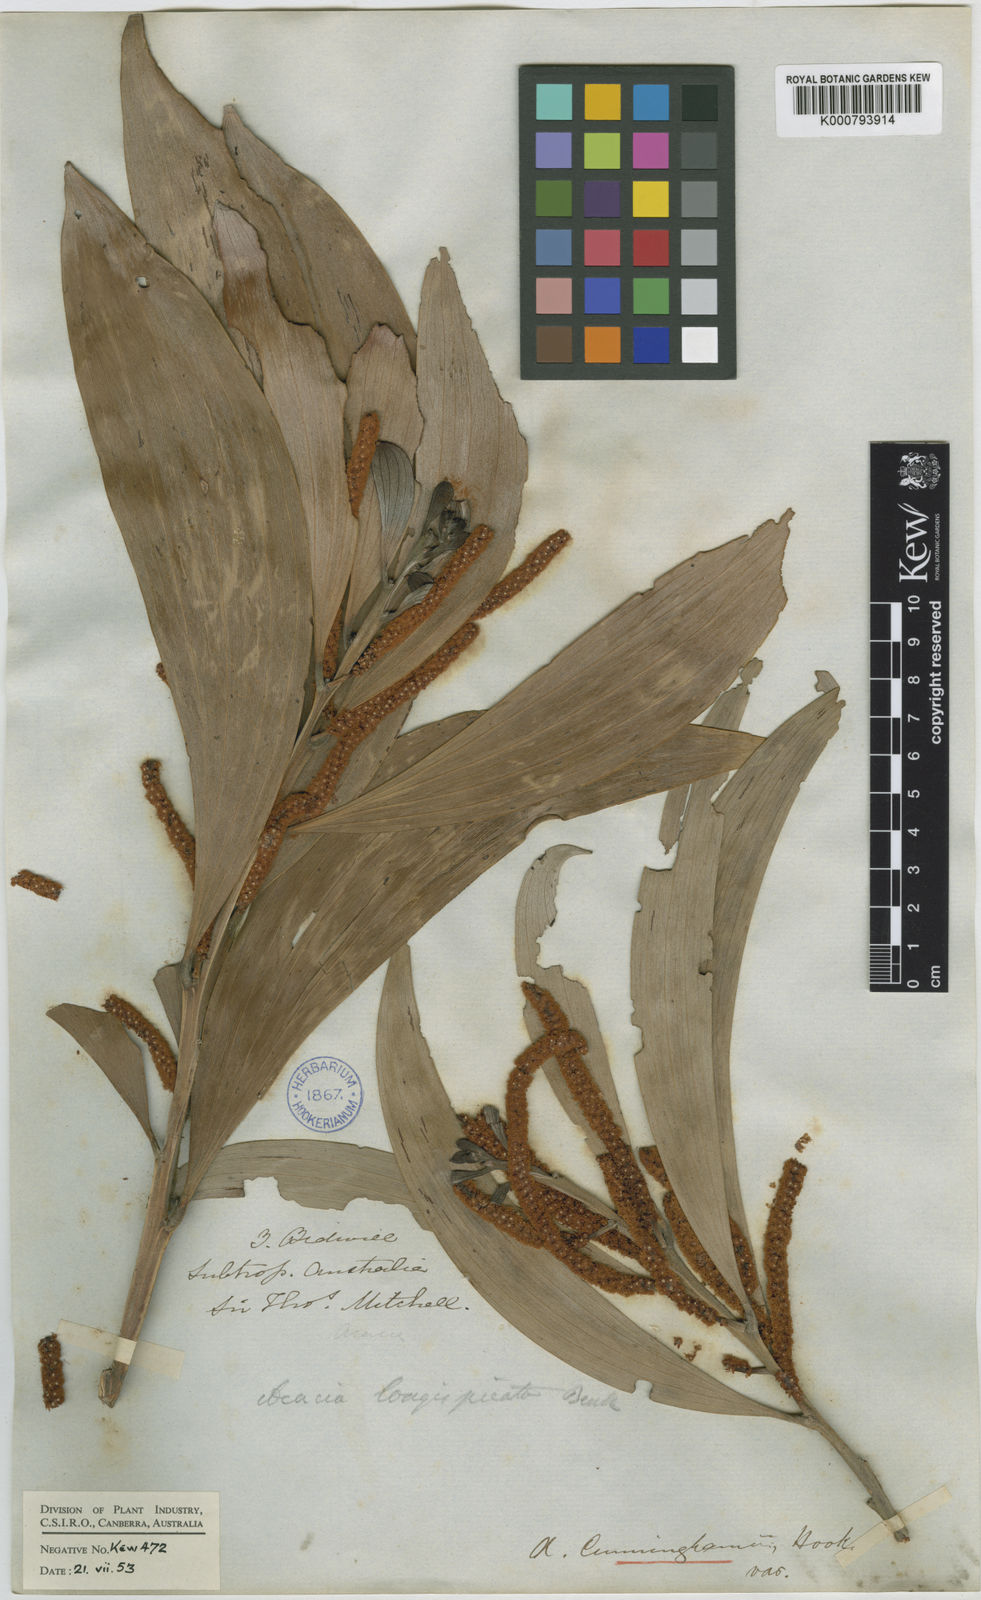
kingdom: Plantae
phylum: Tracheophyta
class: Magnoliopsida
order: Fabales
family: Fabaceae
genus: Acacia
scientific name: Acacia longispicata
